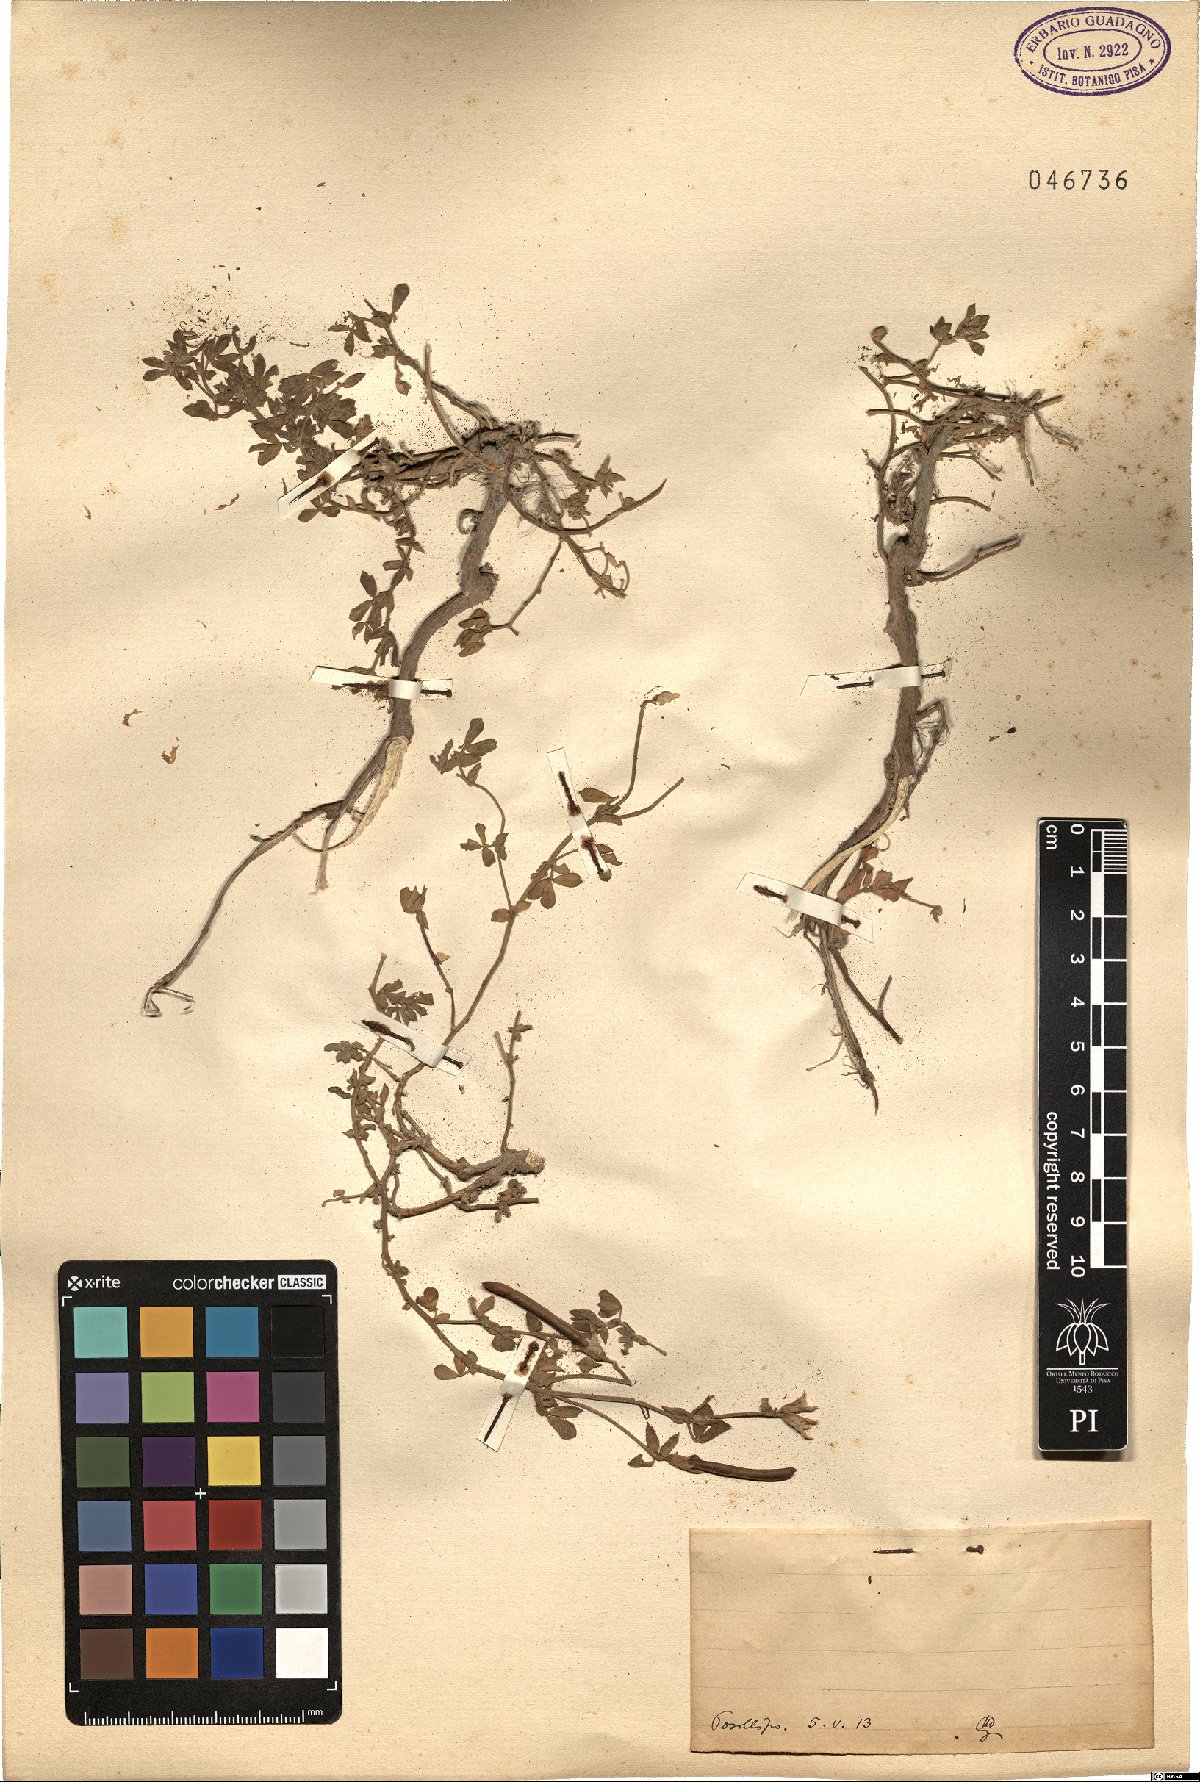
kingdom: Plantae
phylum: Tracheophyta
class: Magnoliopsida
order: Fabales
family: Fabaceae
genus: Lotus
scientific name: Lotus
